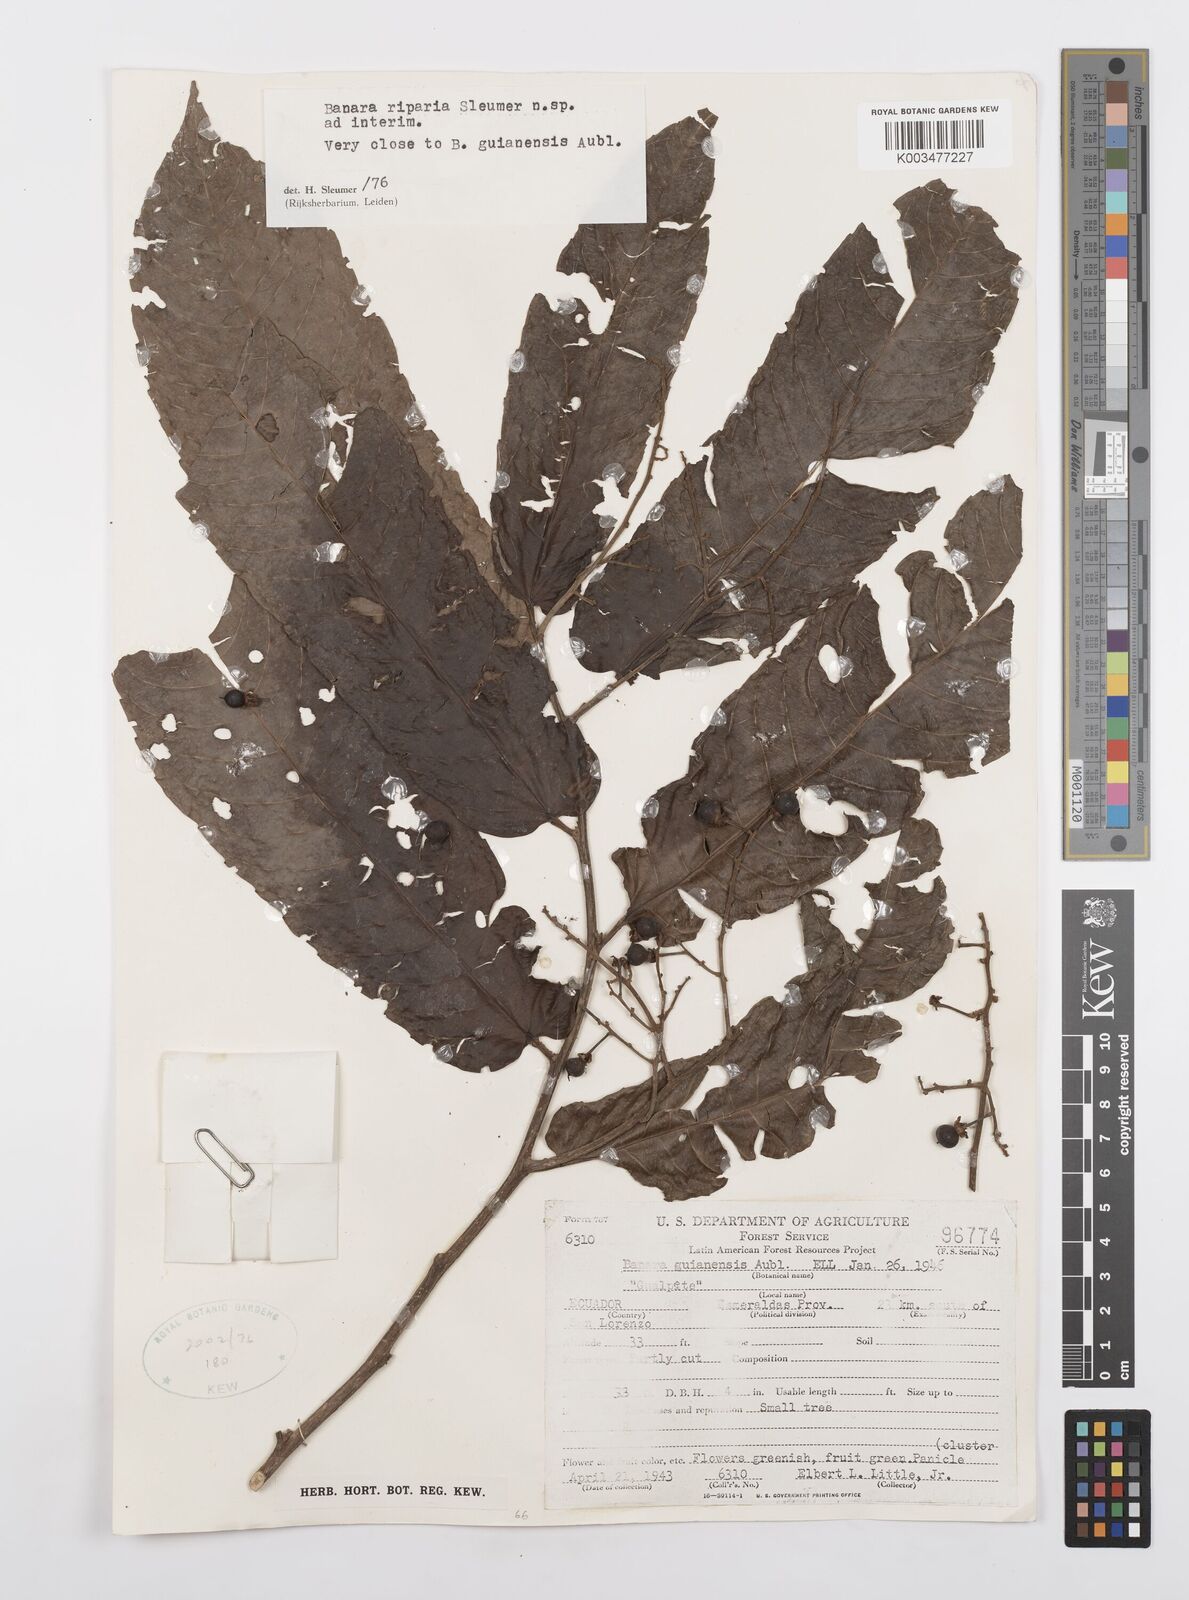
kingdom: Plantae
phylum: Tracheophyta
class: Magnoliopsida
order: Malpighiales
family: Salicaceae
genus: Banara
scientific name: Banara riparia
